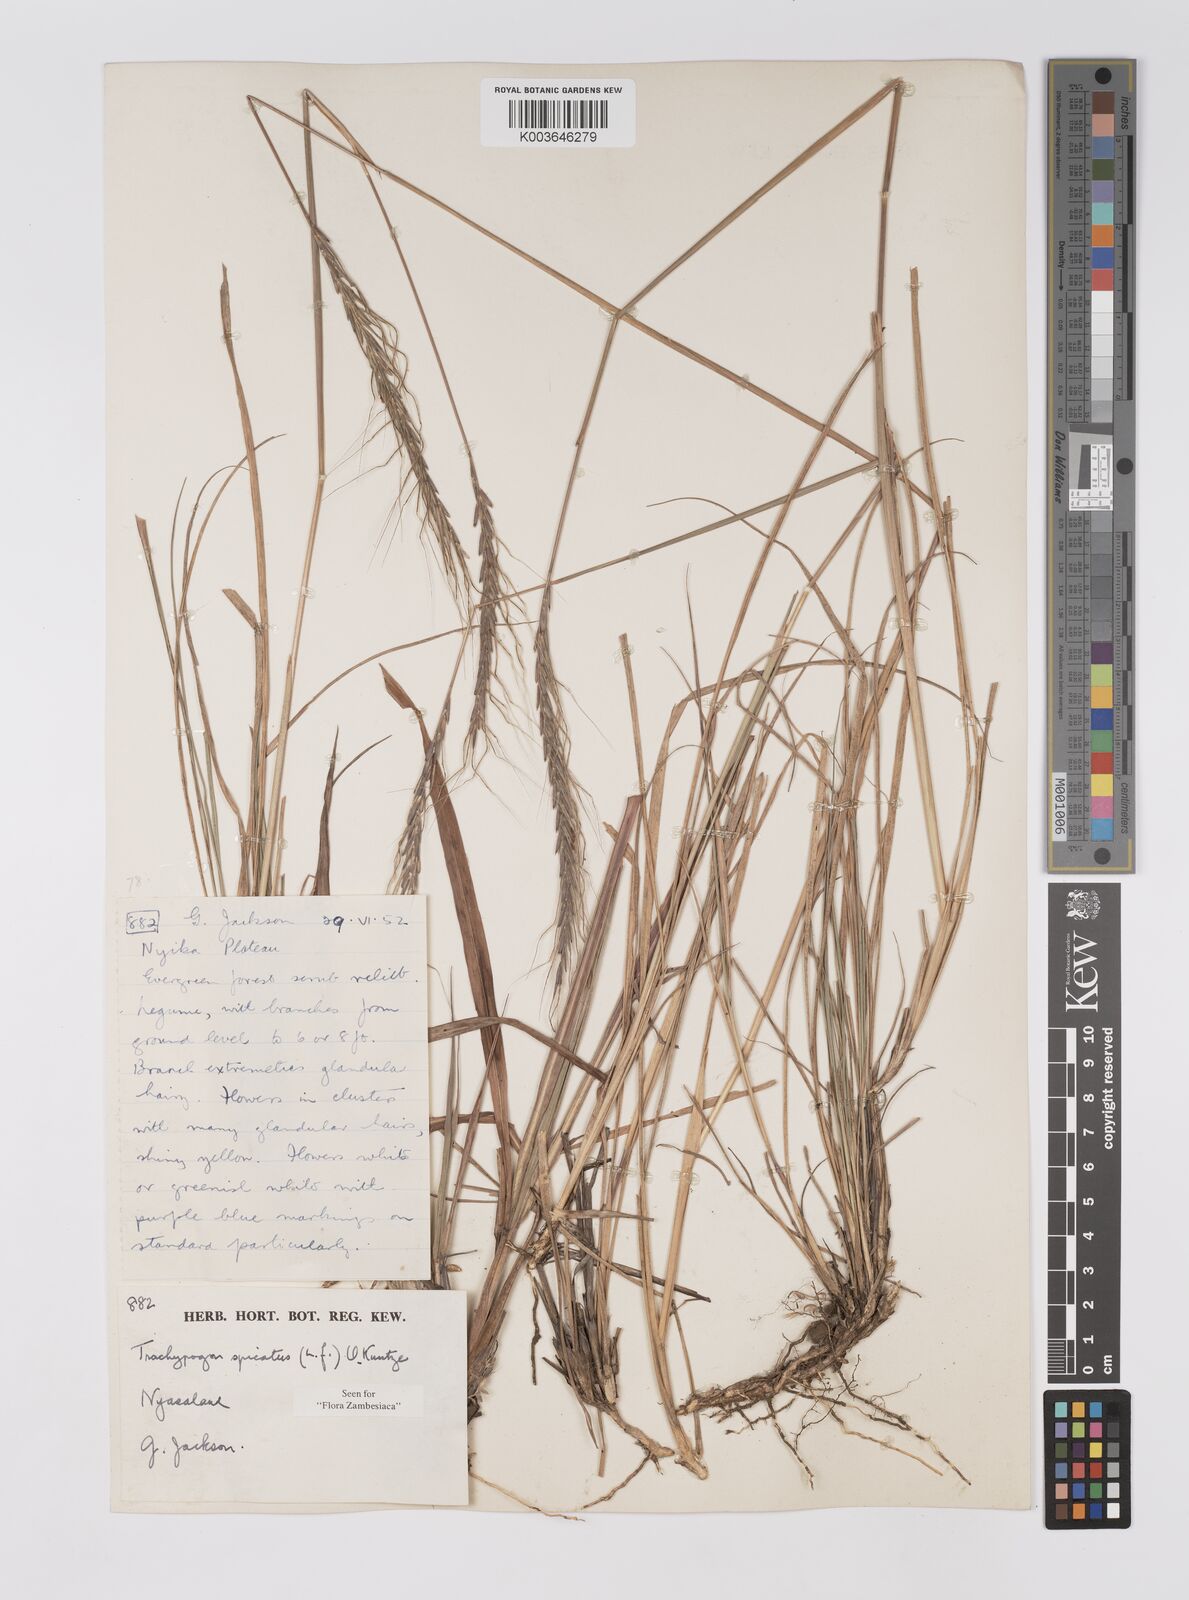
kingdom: Plantae
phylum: Tracheophyta
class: Liliopsida
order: Poales
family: Poaceae
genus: Trachypogon
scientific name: Trachypogon spicatus
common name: Crinkle-awn
